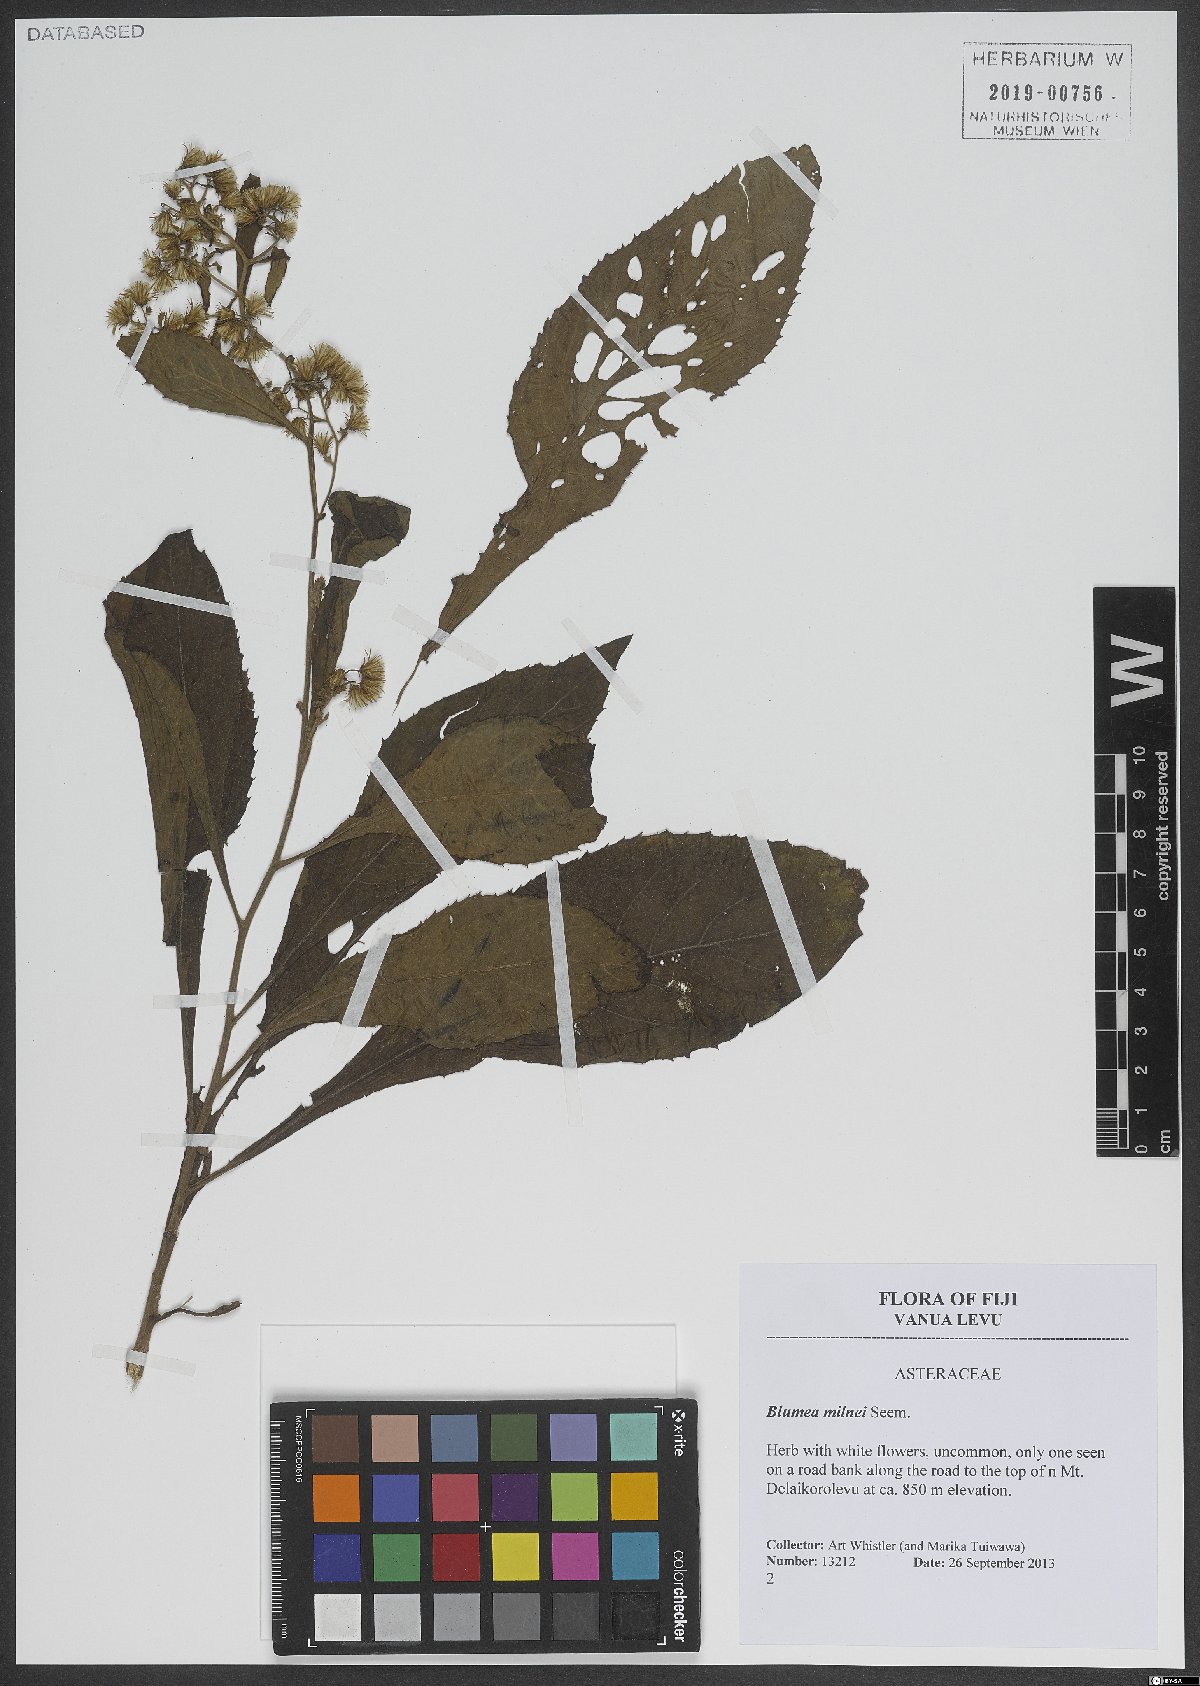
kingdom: Plantae
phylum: Tracheophyta
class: Magnoliopsida
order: Asterales
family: Asteraceae
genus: Blumea
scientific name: Blumea milnei
